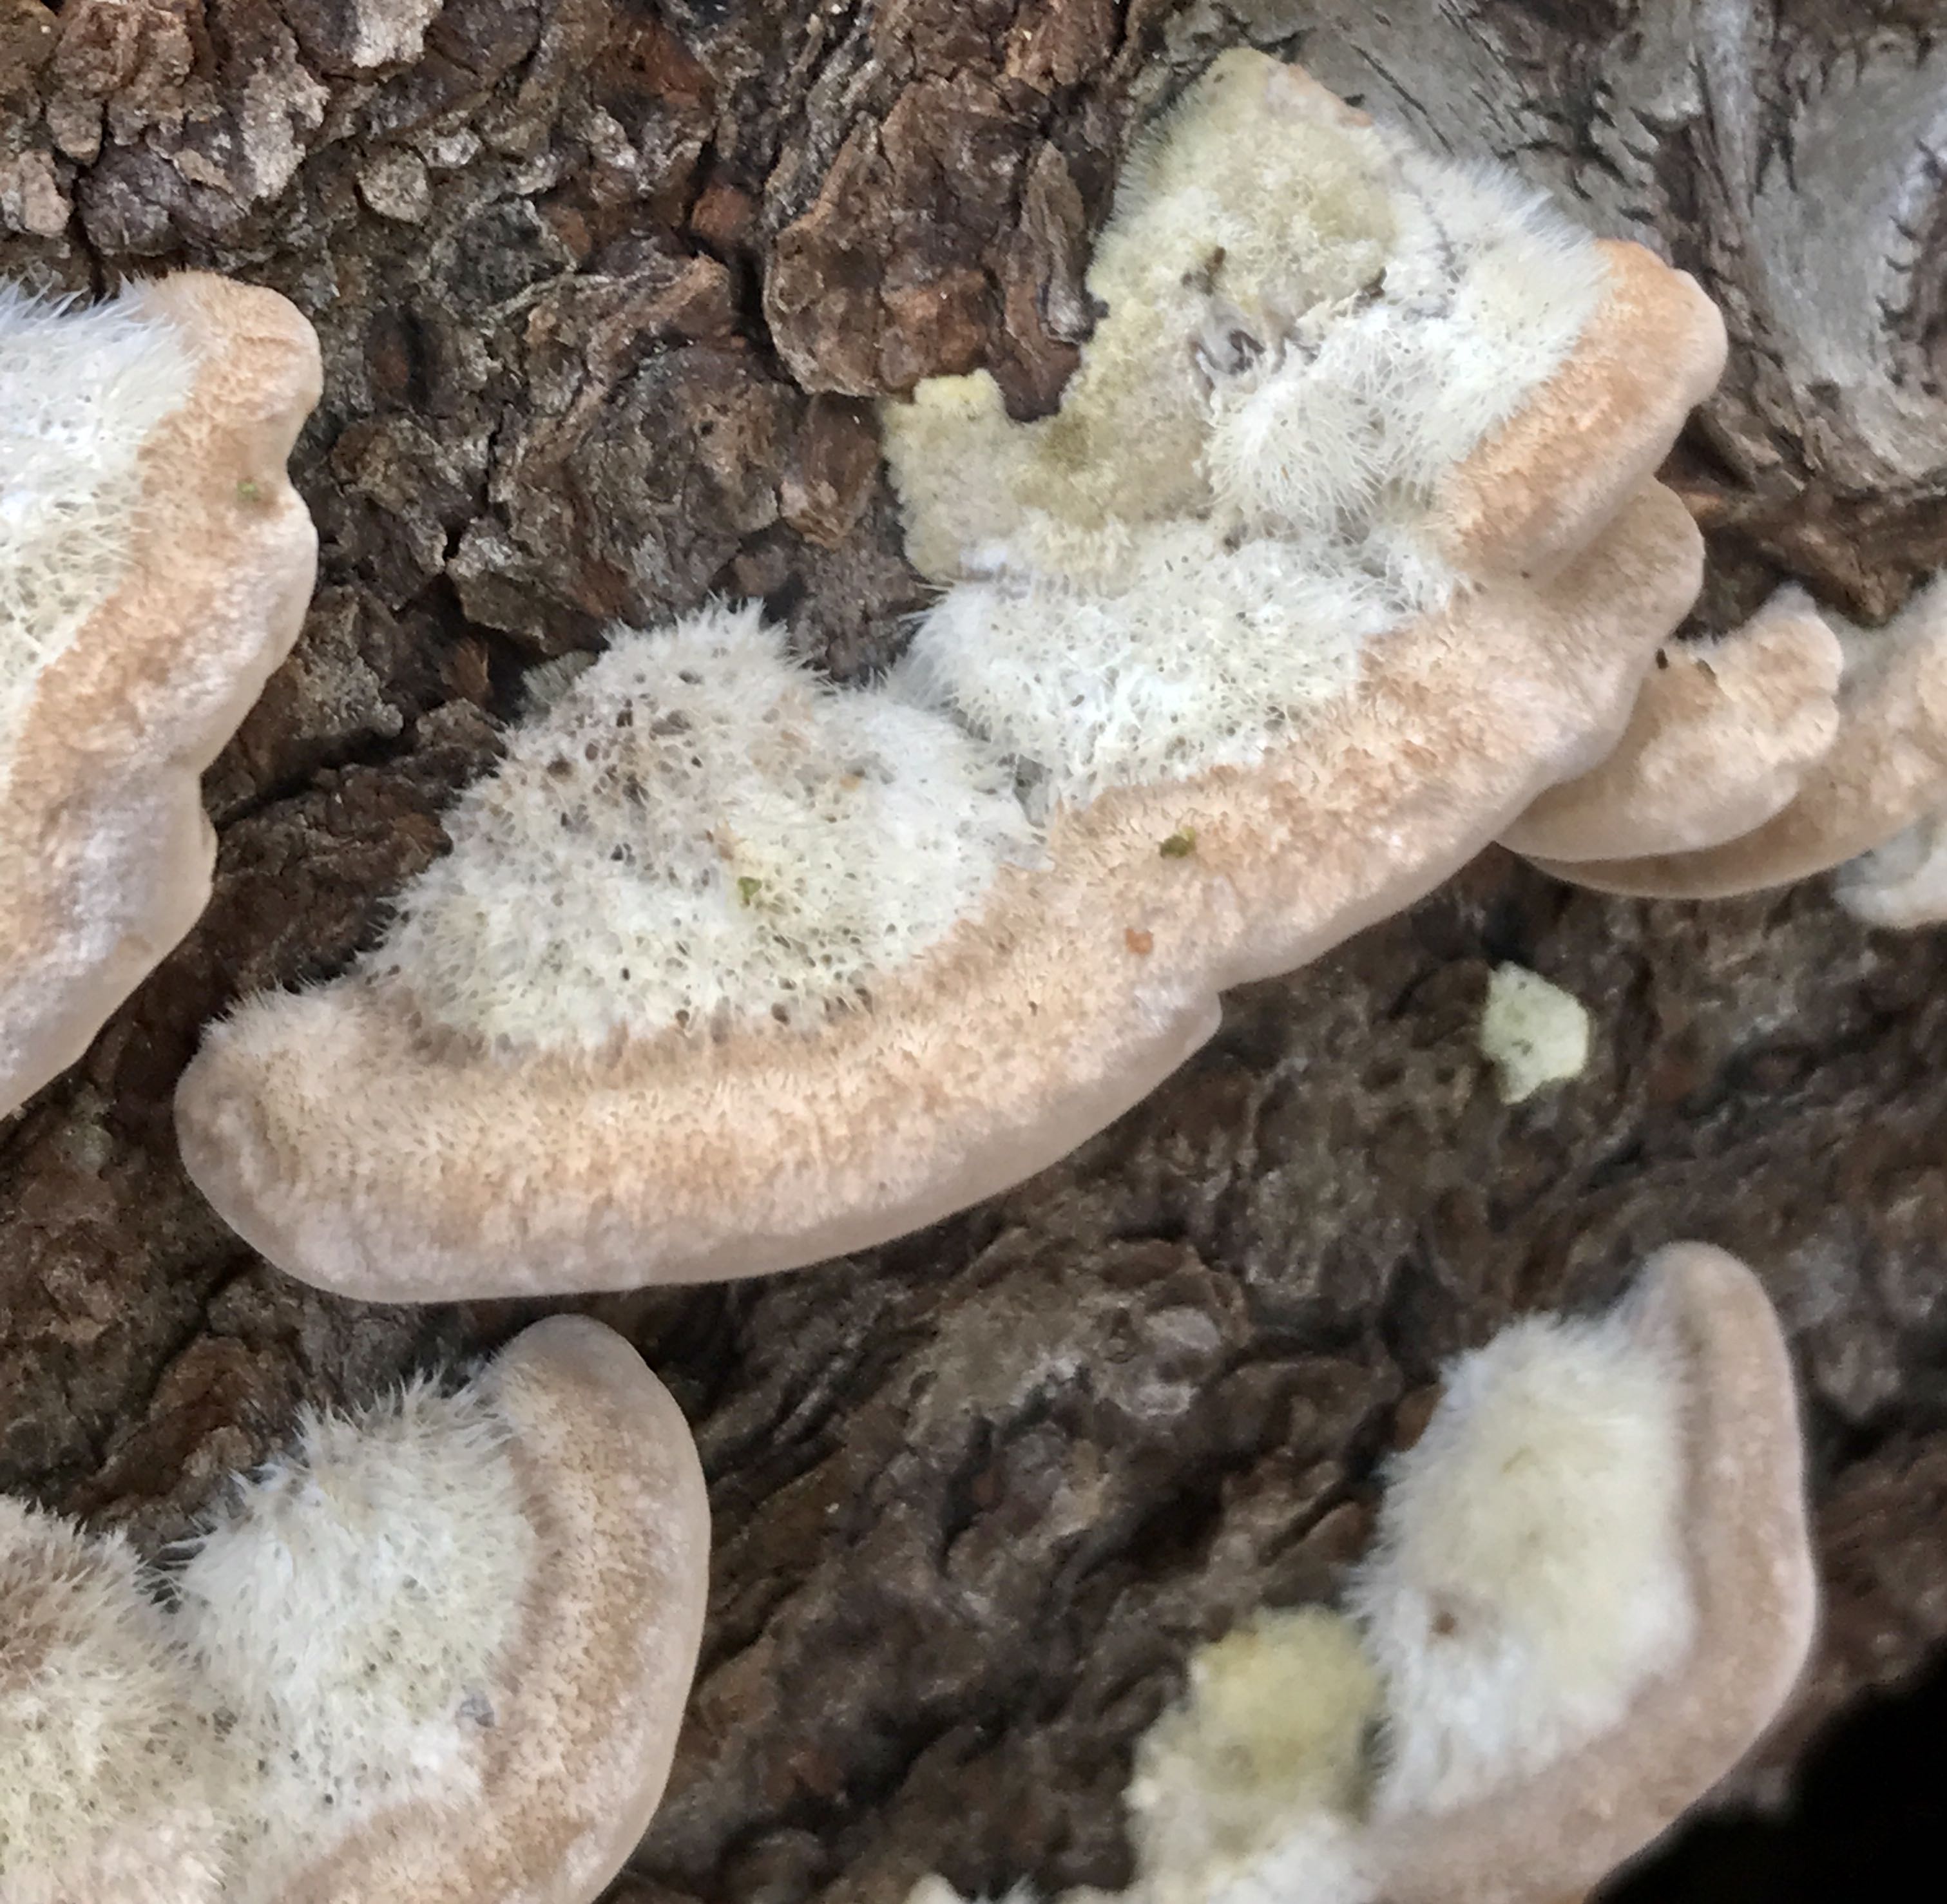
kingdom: Fungi
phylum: Basidiomycota
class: Agaricomycetes
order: Polyporales
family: Polyporaceae
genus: Trametes
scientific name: Trametes hirsuta
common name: håret læderporesvamp
